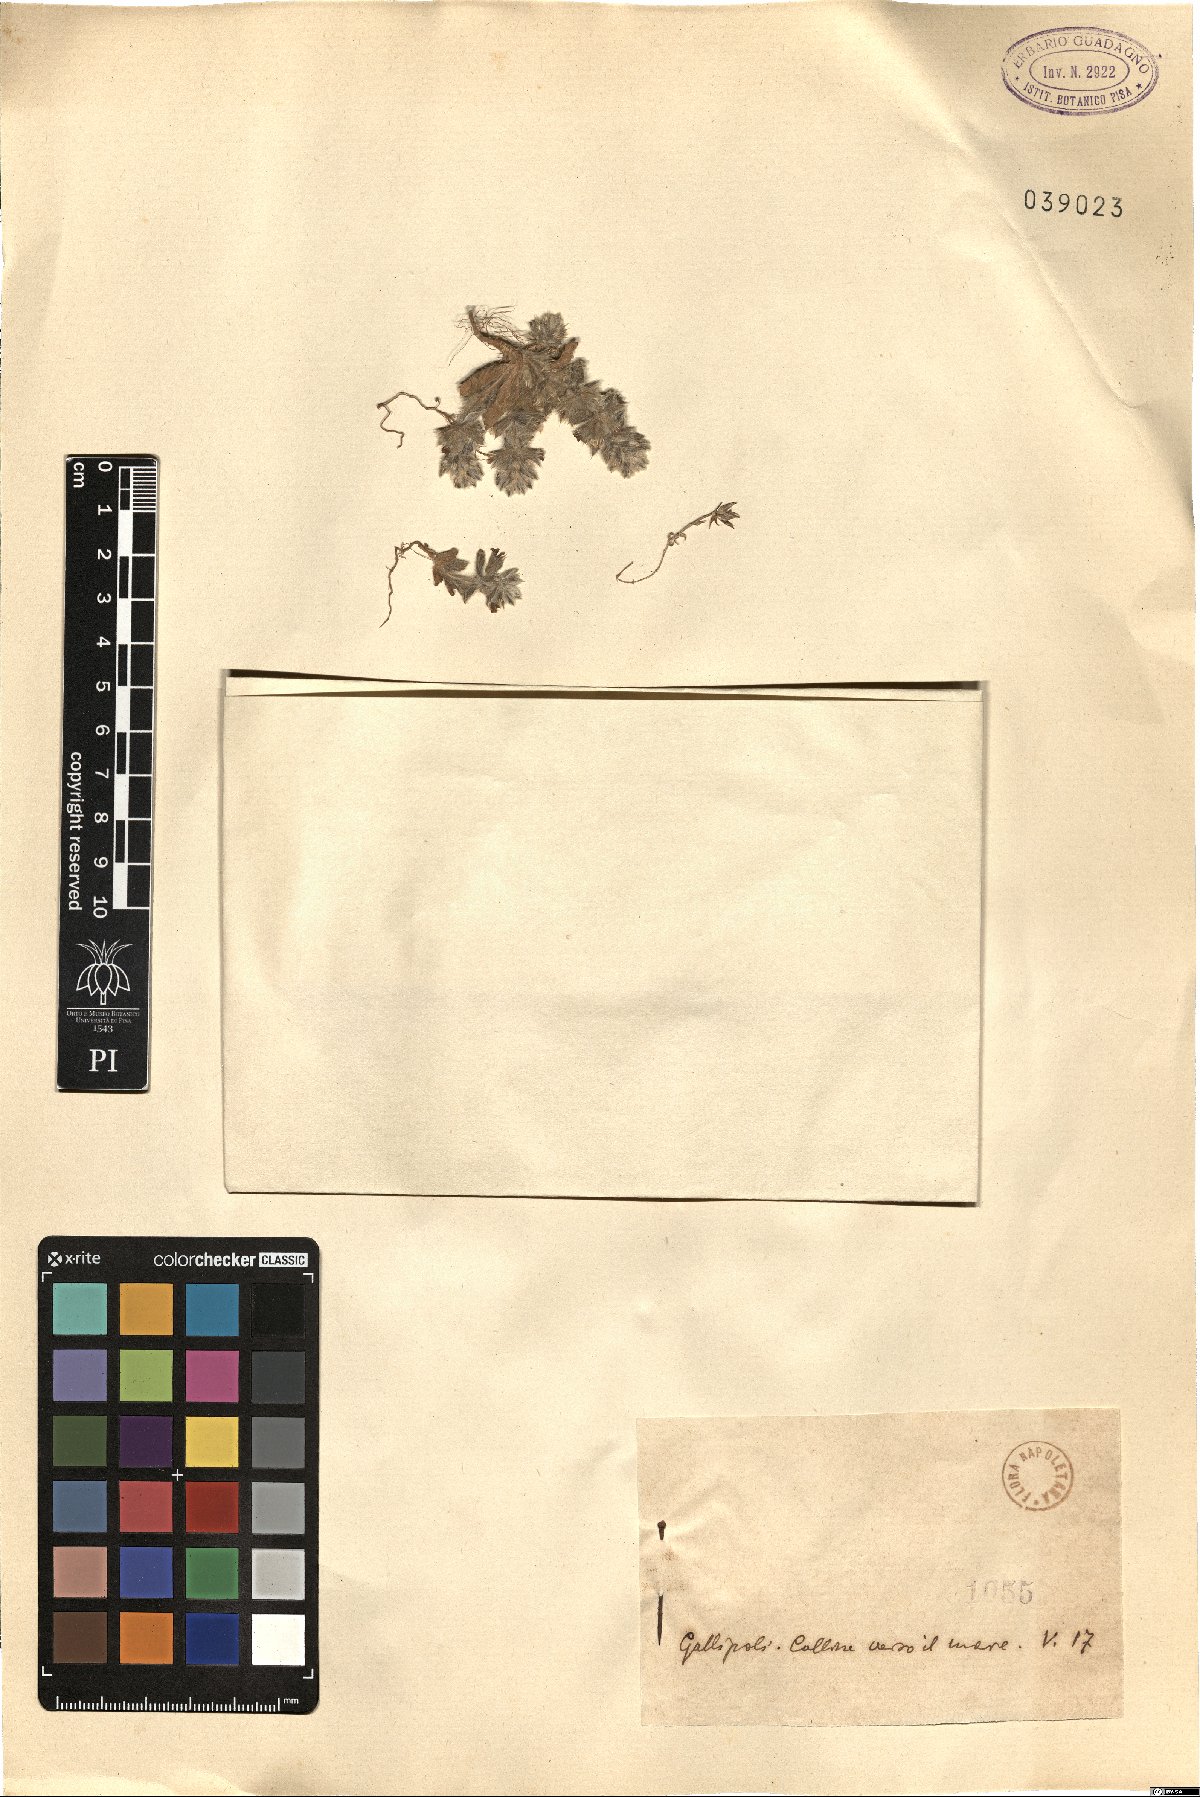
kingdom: Plantae
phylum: Tracheophyta
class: Magnoliopsida
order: Lamiales
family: Lamiaceae
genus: Sideritis
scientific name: Sideritis
